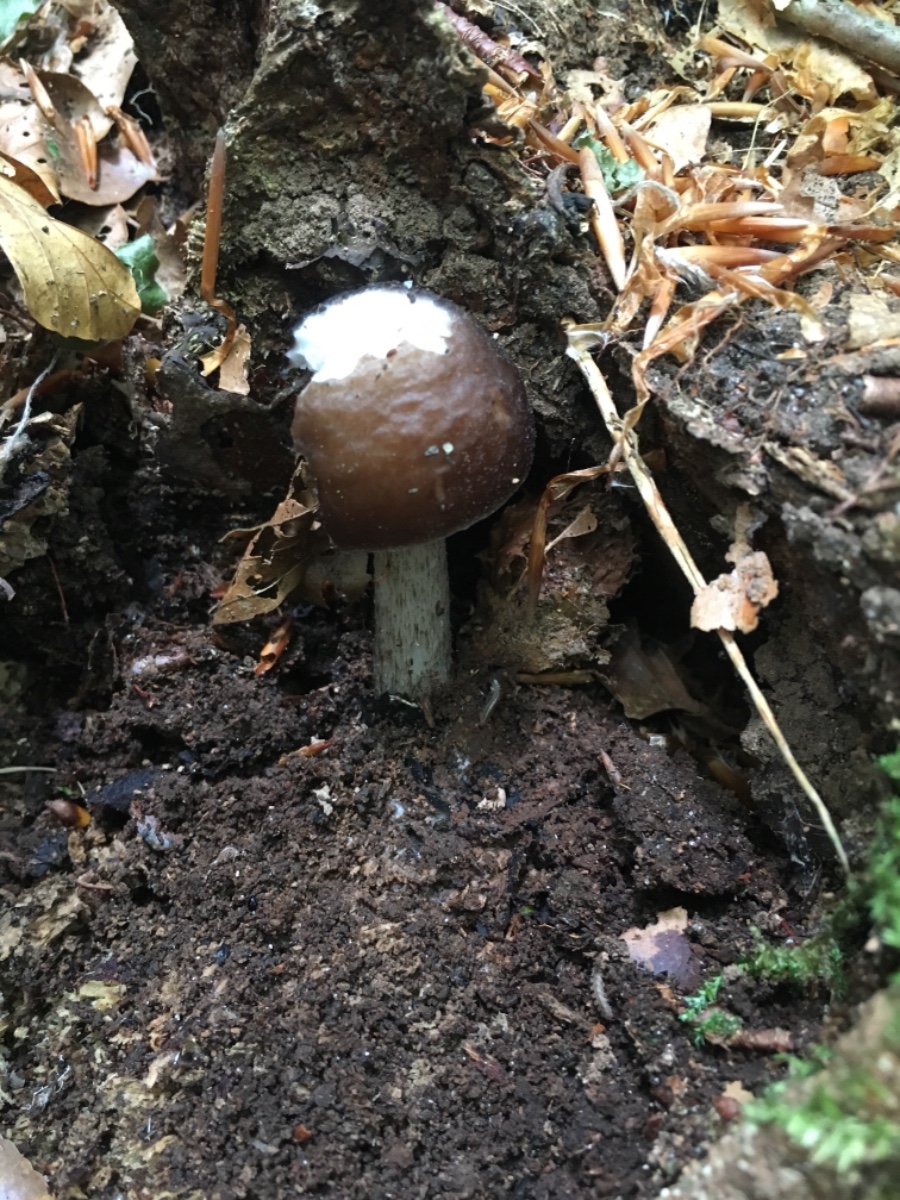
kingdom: Fungi
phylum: Basidiomycota
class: Agaricomycetes
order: Agaricales
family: Pluteaceae
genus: Pluteus
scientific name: Pluteus cervinus
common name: sodfarvet skærmhat
